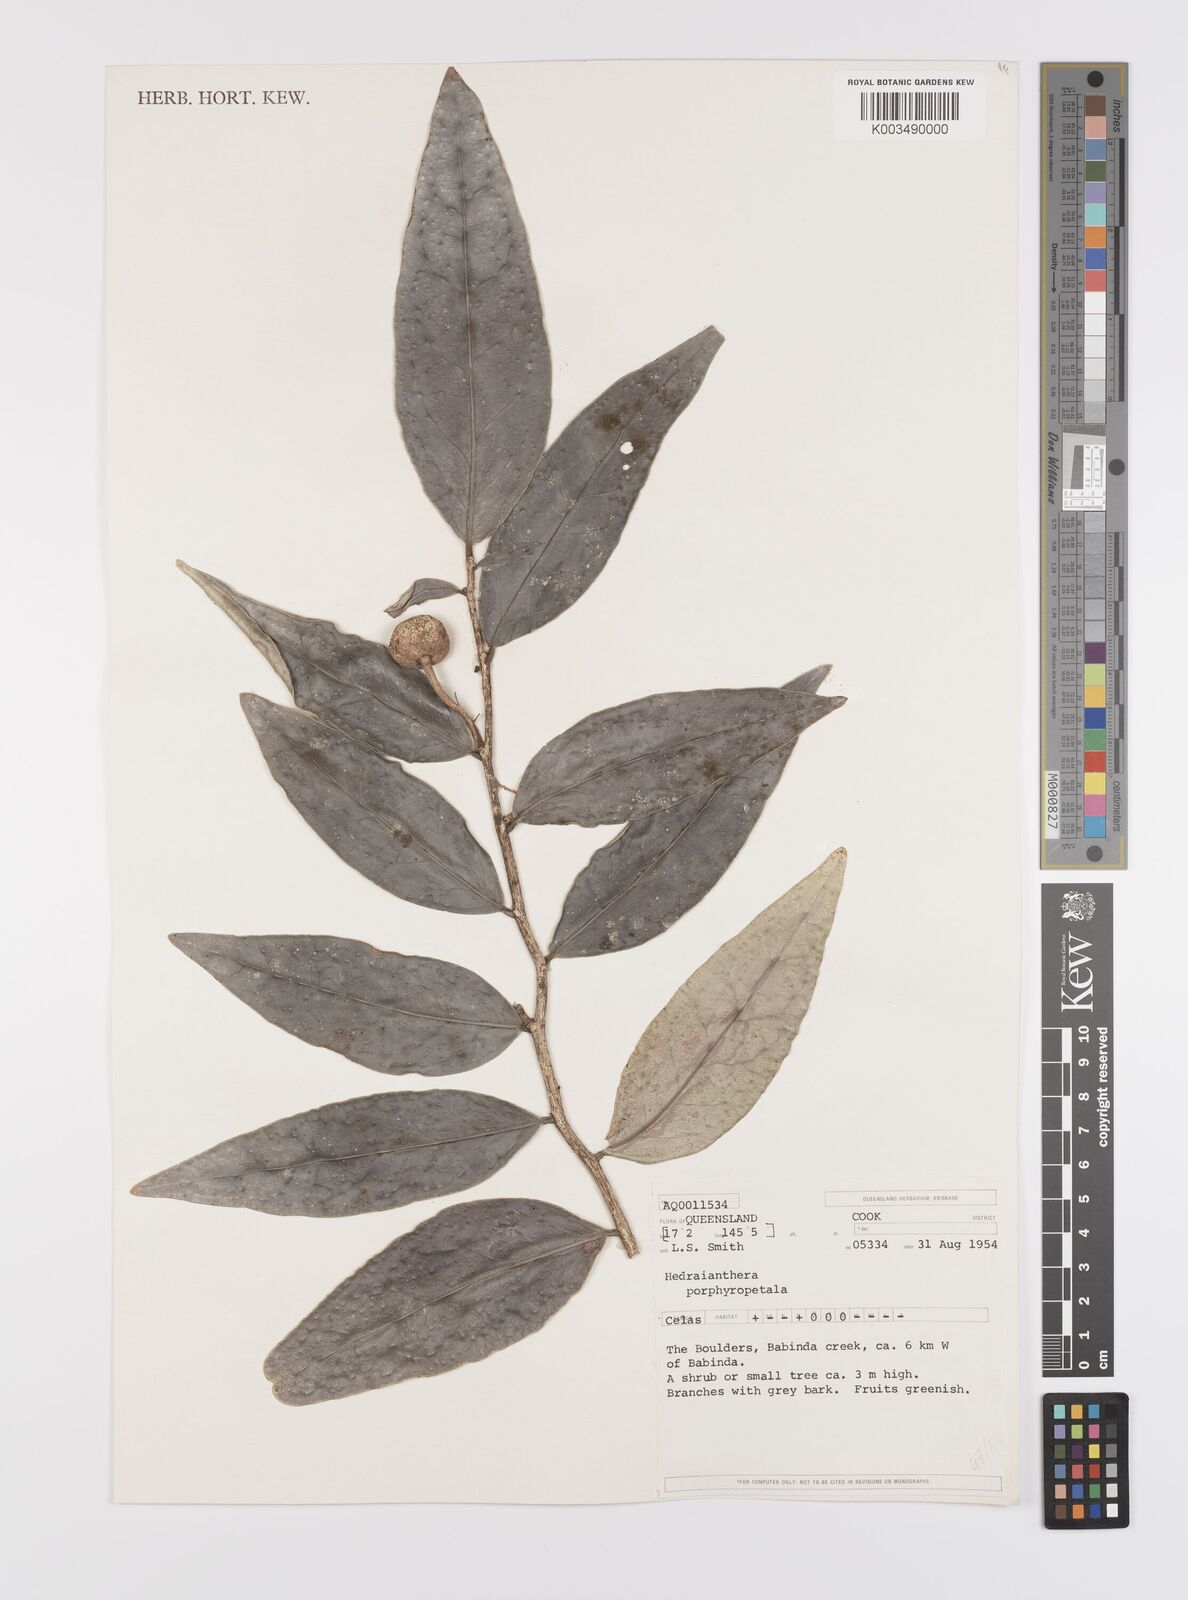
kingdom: Plantae
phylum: Tracheophyta
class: Magnoliopsida
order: Celastrales
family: Celastraceae
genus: Hedraianthera
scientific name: Hedraianthera porphyropetala
